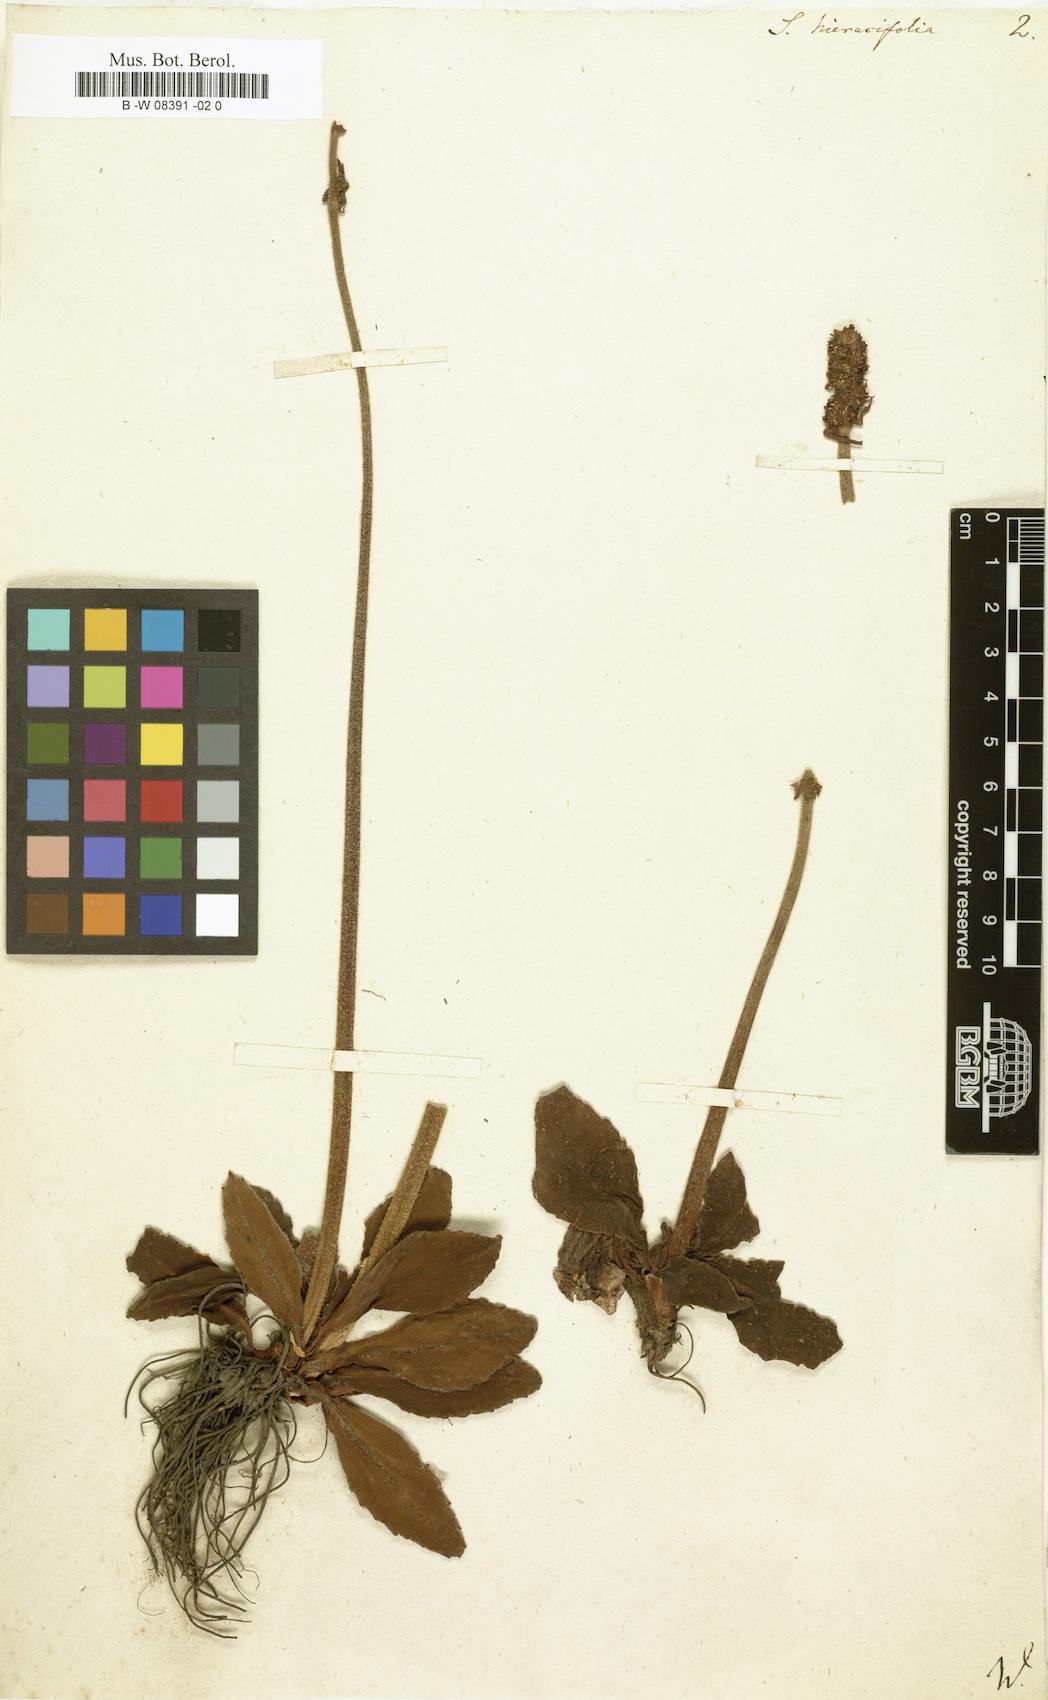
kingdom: Plantae
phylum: Tracheophyta
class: Magnoliopsida
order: Saxifragales
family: Saxifragaceae
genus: Micranthes
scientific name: Micranthes
